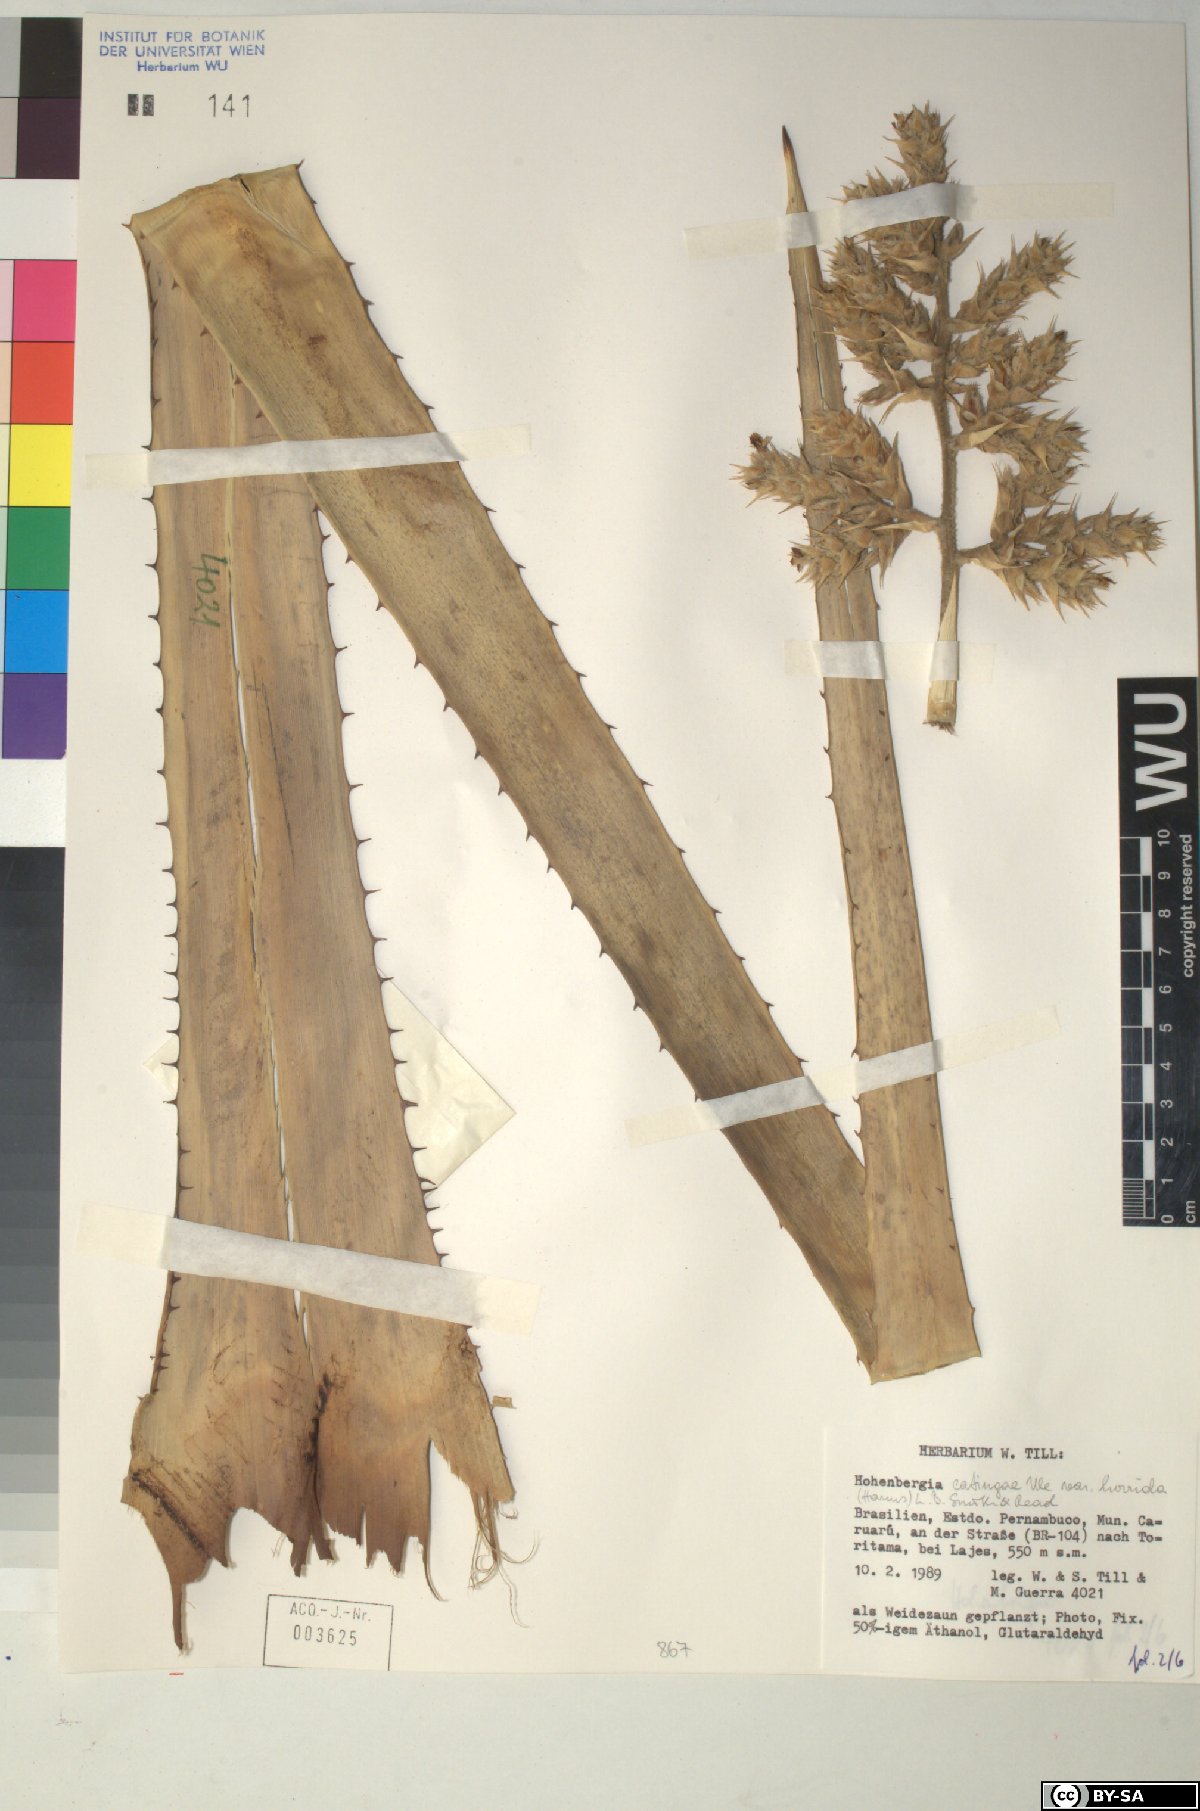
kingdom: Plantae
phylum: Tracheophyta
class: Liliopsida
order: Poales
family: Bromeliaceae
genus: Hohenbergia
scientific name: Hohenbergia
